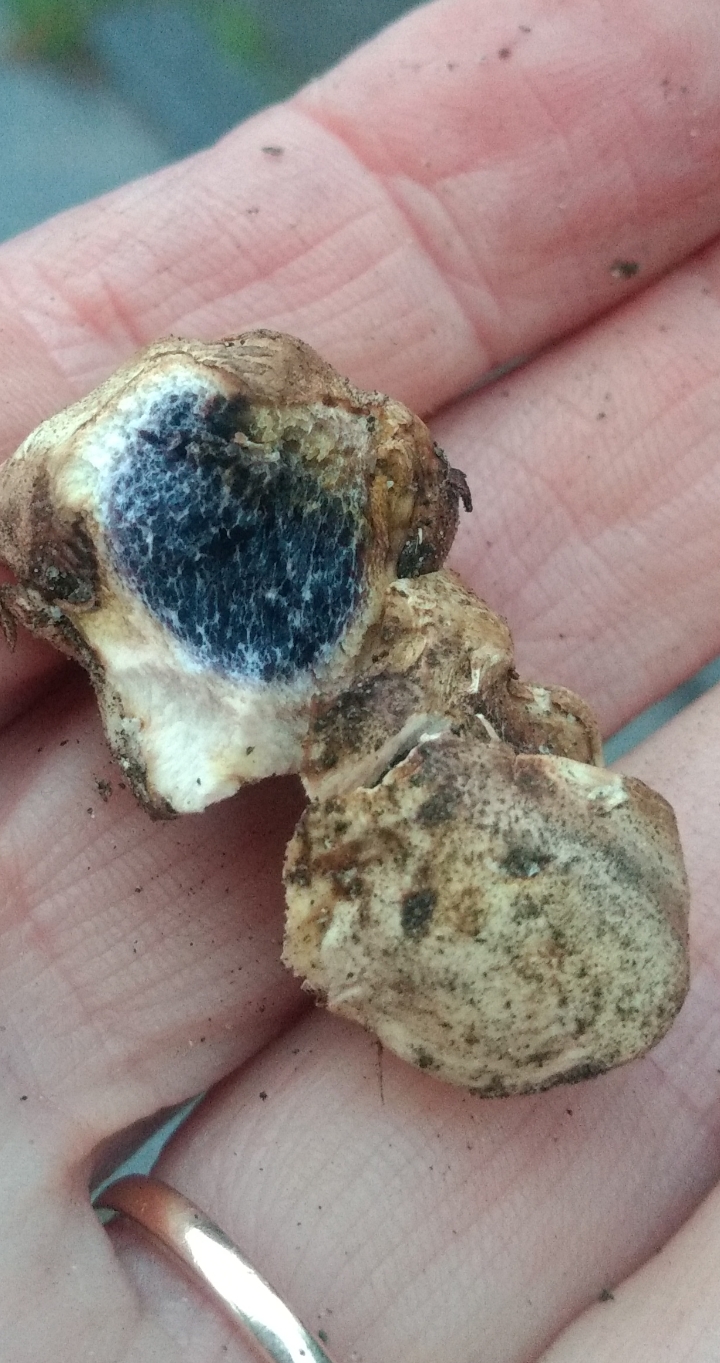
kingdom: Fungi
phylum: Basidiomycota
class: Agaricomycetes
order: Boletales
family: Sclerodermataceae
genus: Scleroderma
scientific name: Scleroderma bovista
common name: bovist-bruskbold
